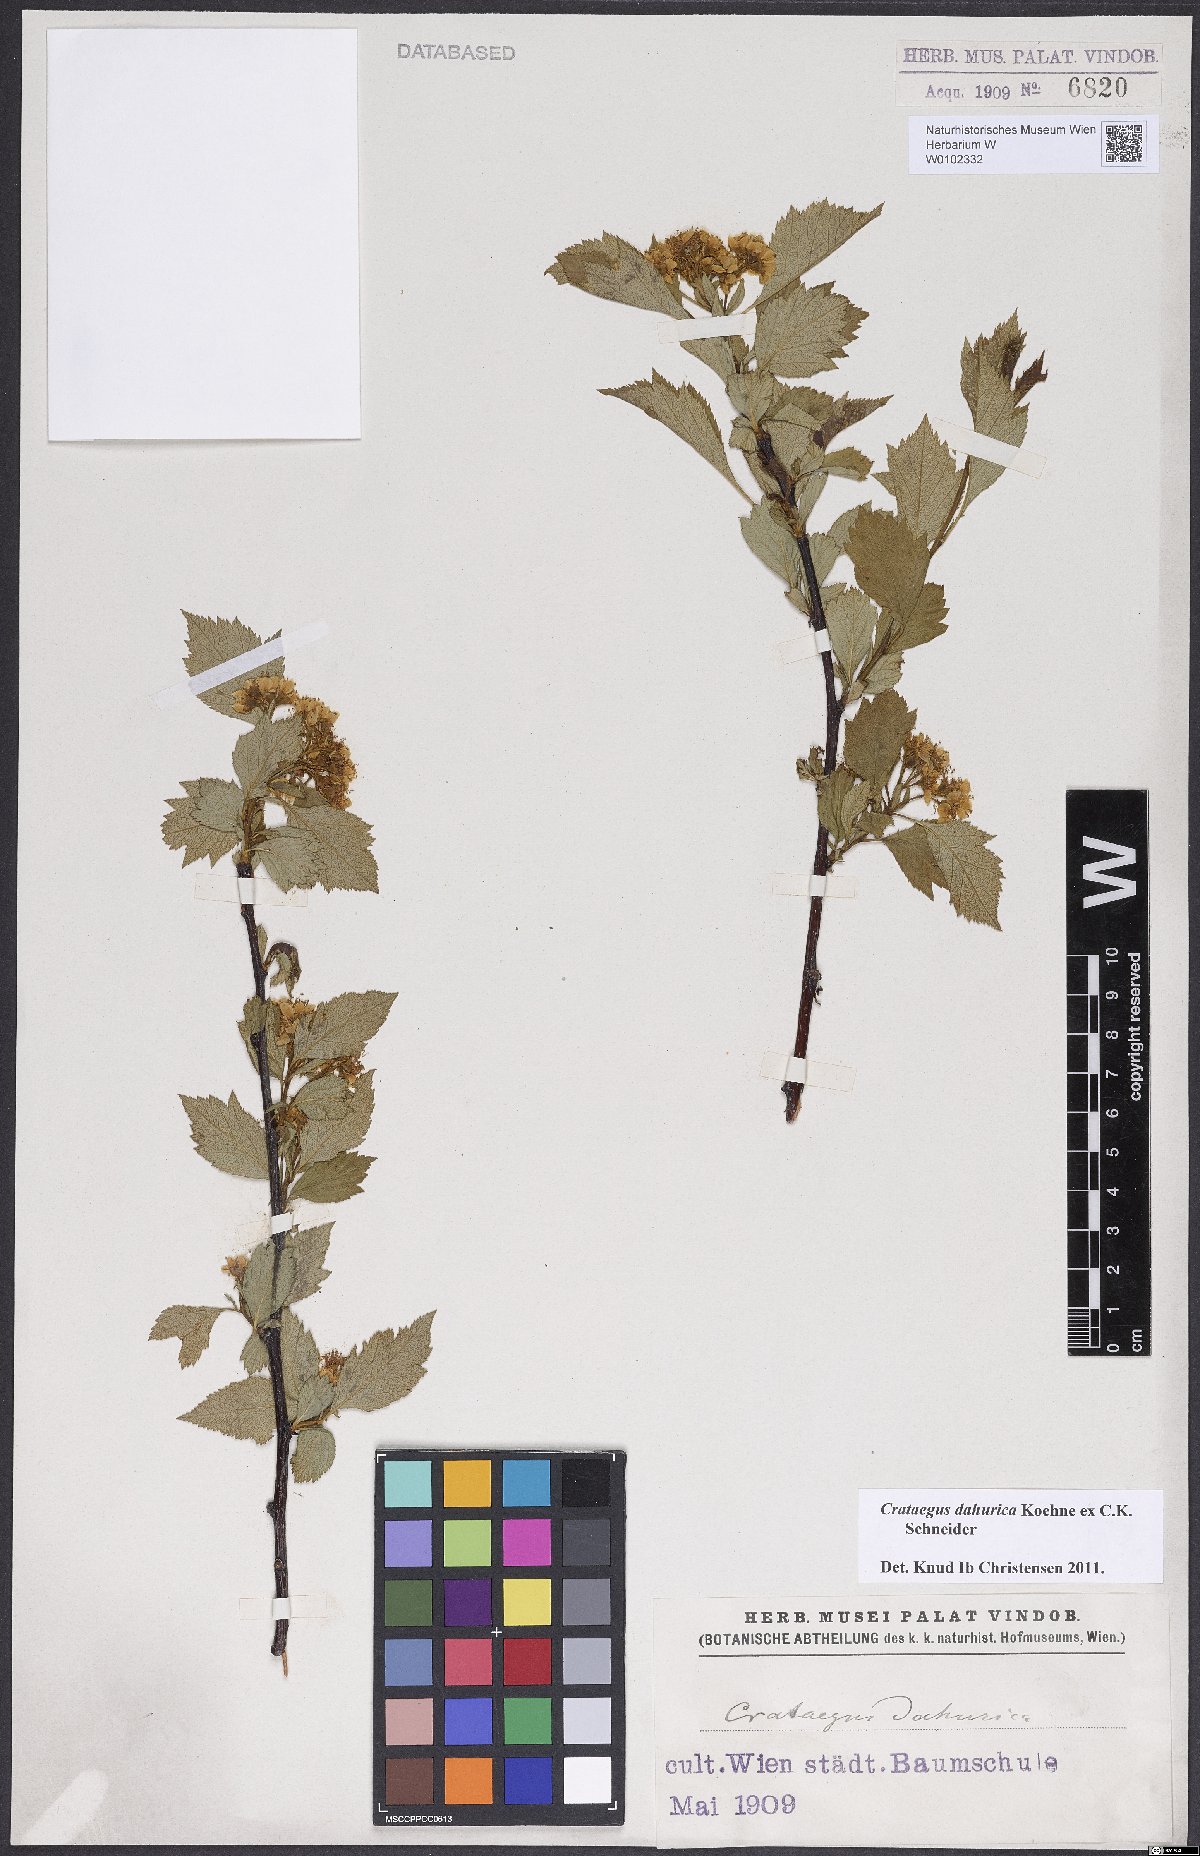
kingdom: Plantae
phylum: Tracheophyta
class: Magnoliopsida
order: Rosales
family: Rosaceae
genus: Crataegus
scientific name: Crataegus dahurica
